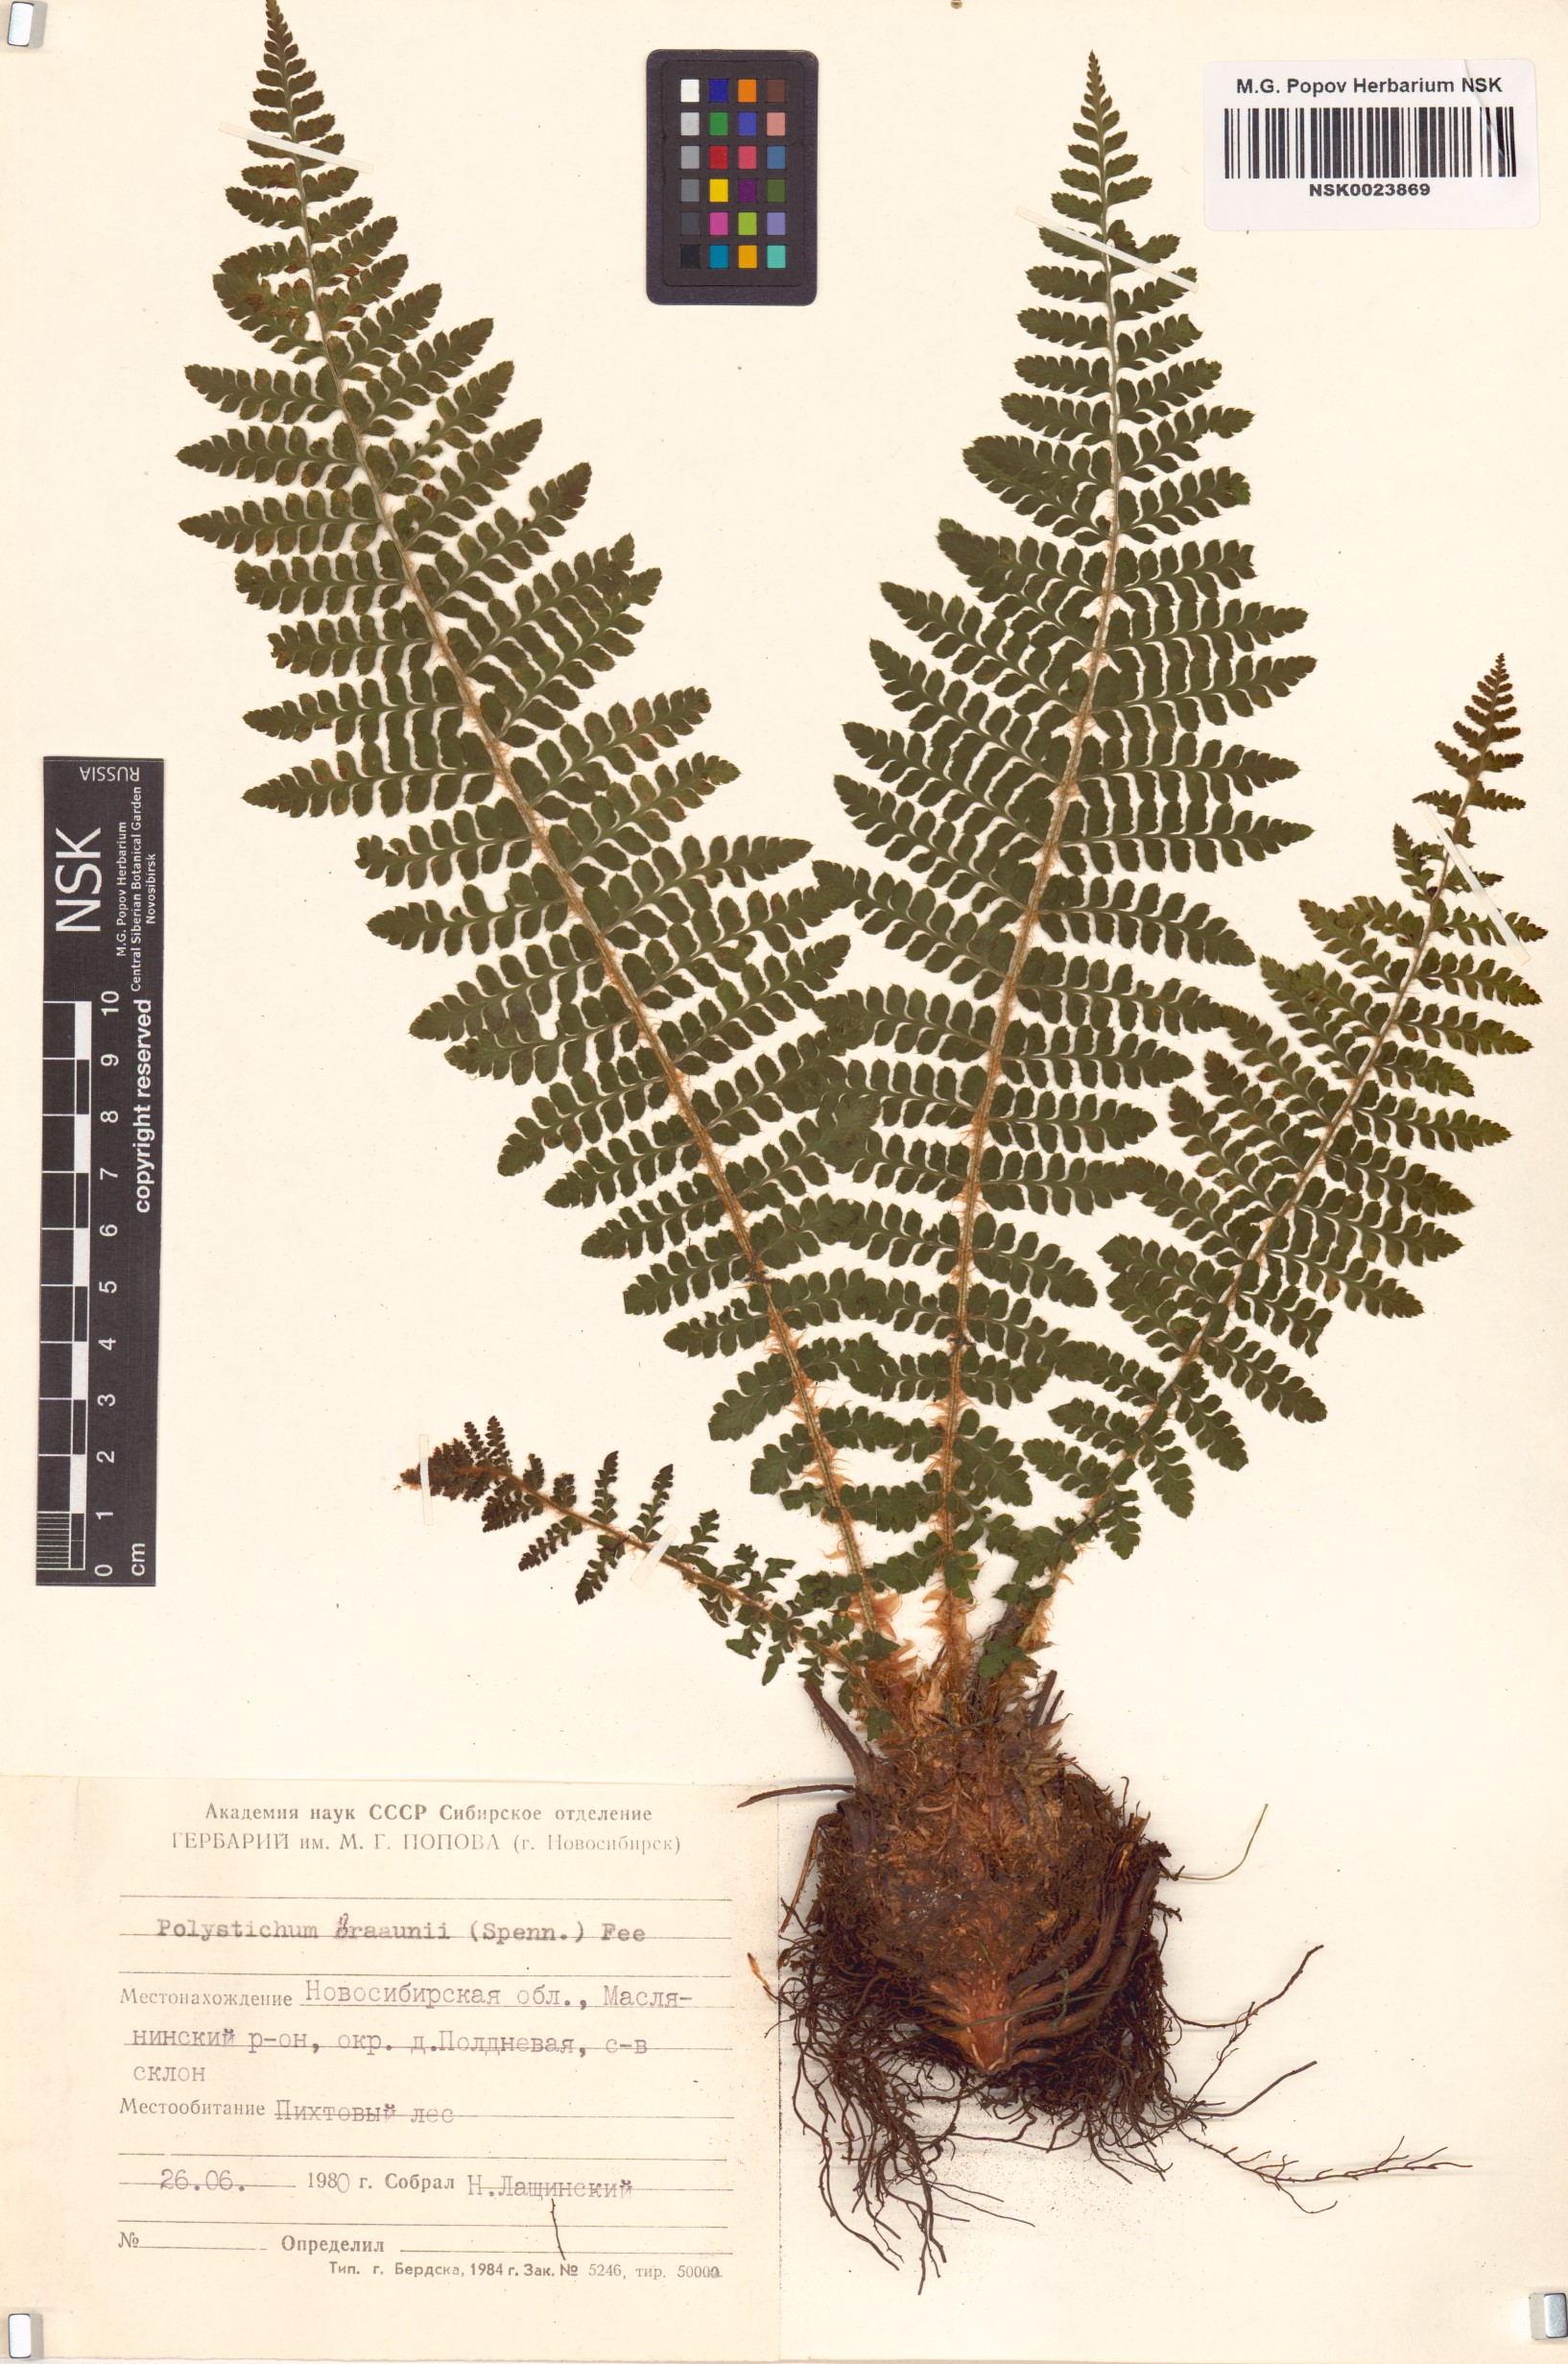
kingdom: Plantae
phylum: Tracheophyta
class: Polypodiopsida
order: Polypodiales
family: Dryopteridaceae
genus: Polystichum
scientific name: Polystichum braunii
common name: Braun's holly fern
